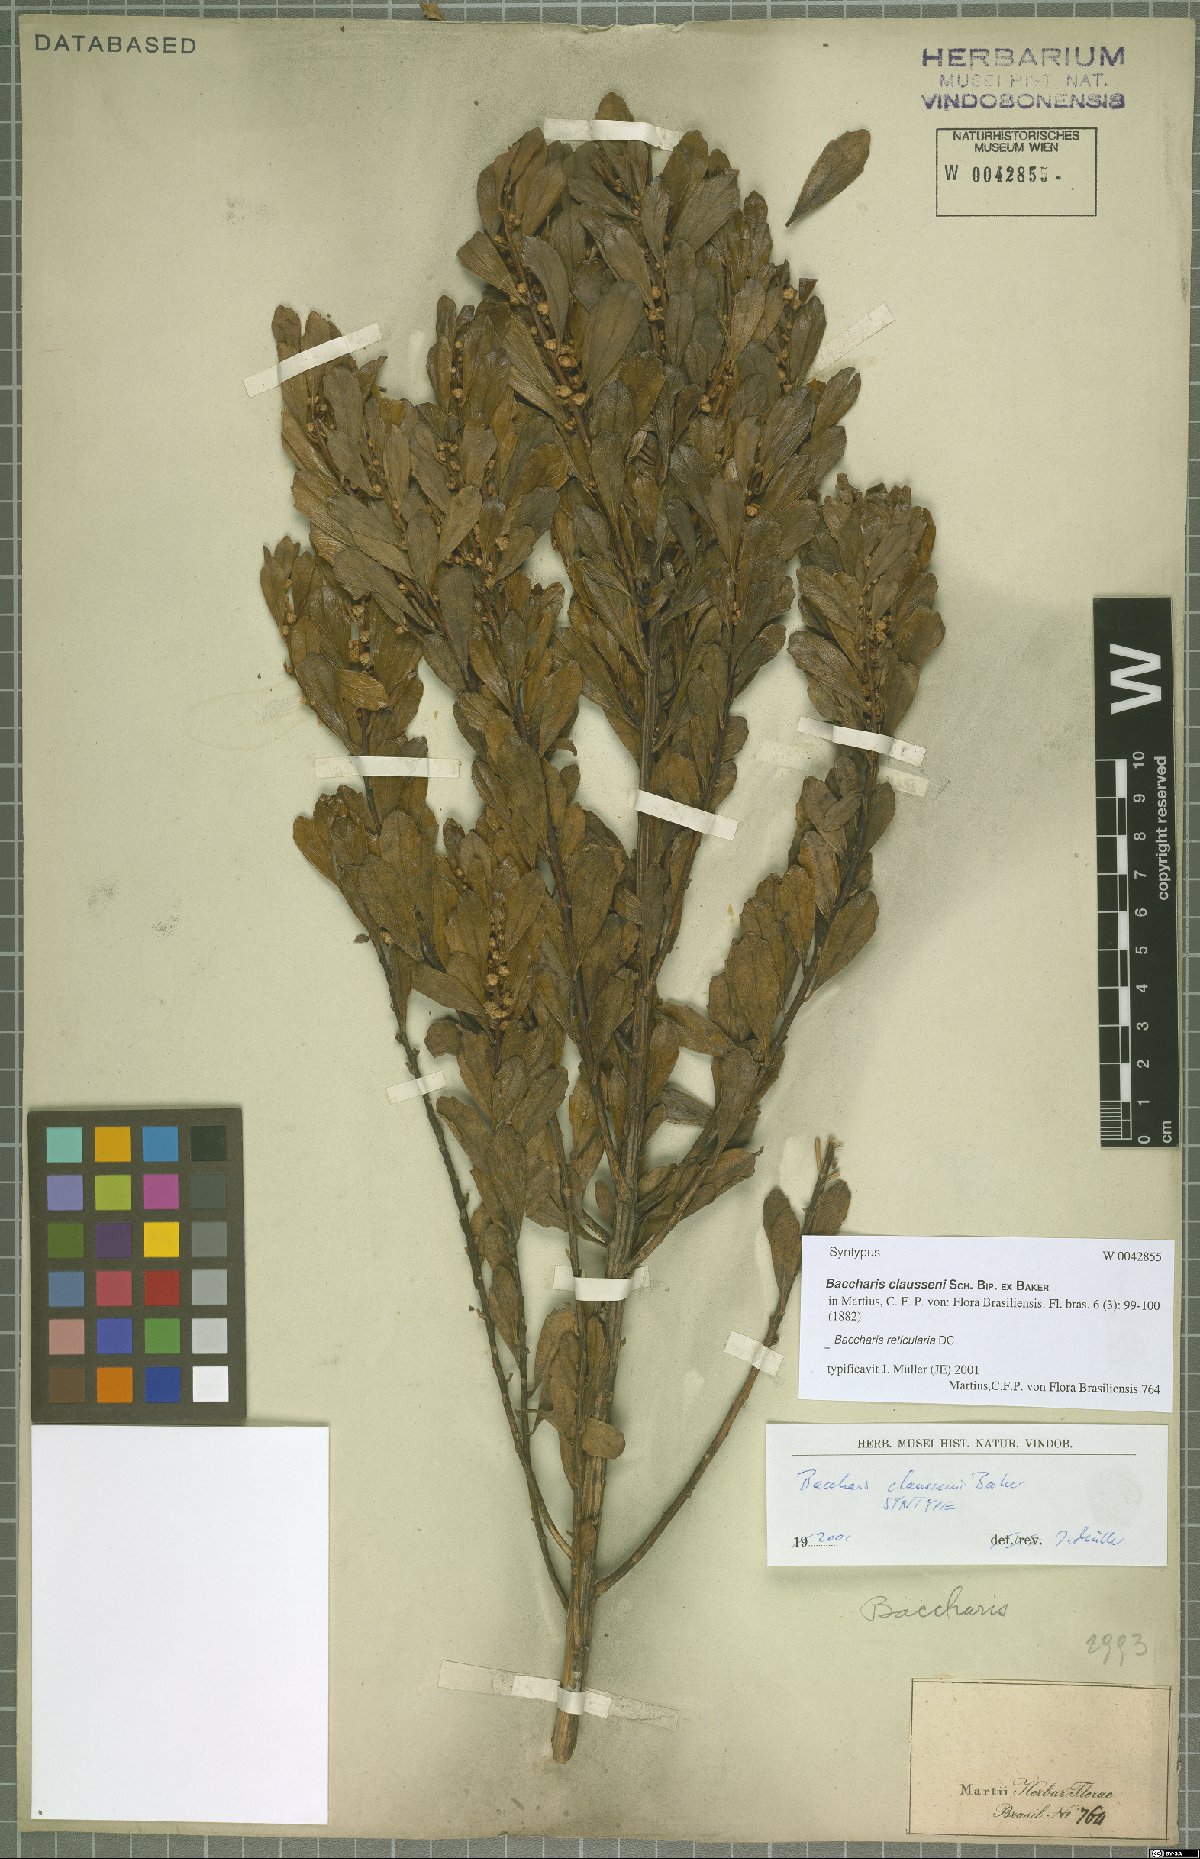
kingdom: Plantae
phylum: Tracheophyta
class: Magnoliopsida
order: Asterales
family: Asteraceae
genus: Baccharis
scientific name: Baccharis reticularia
